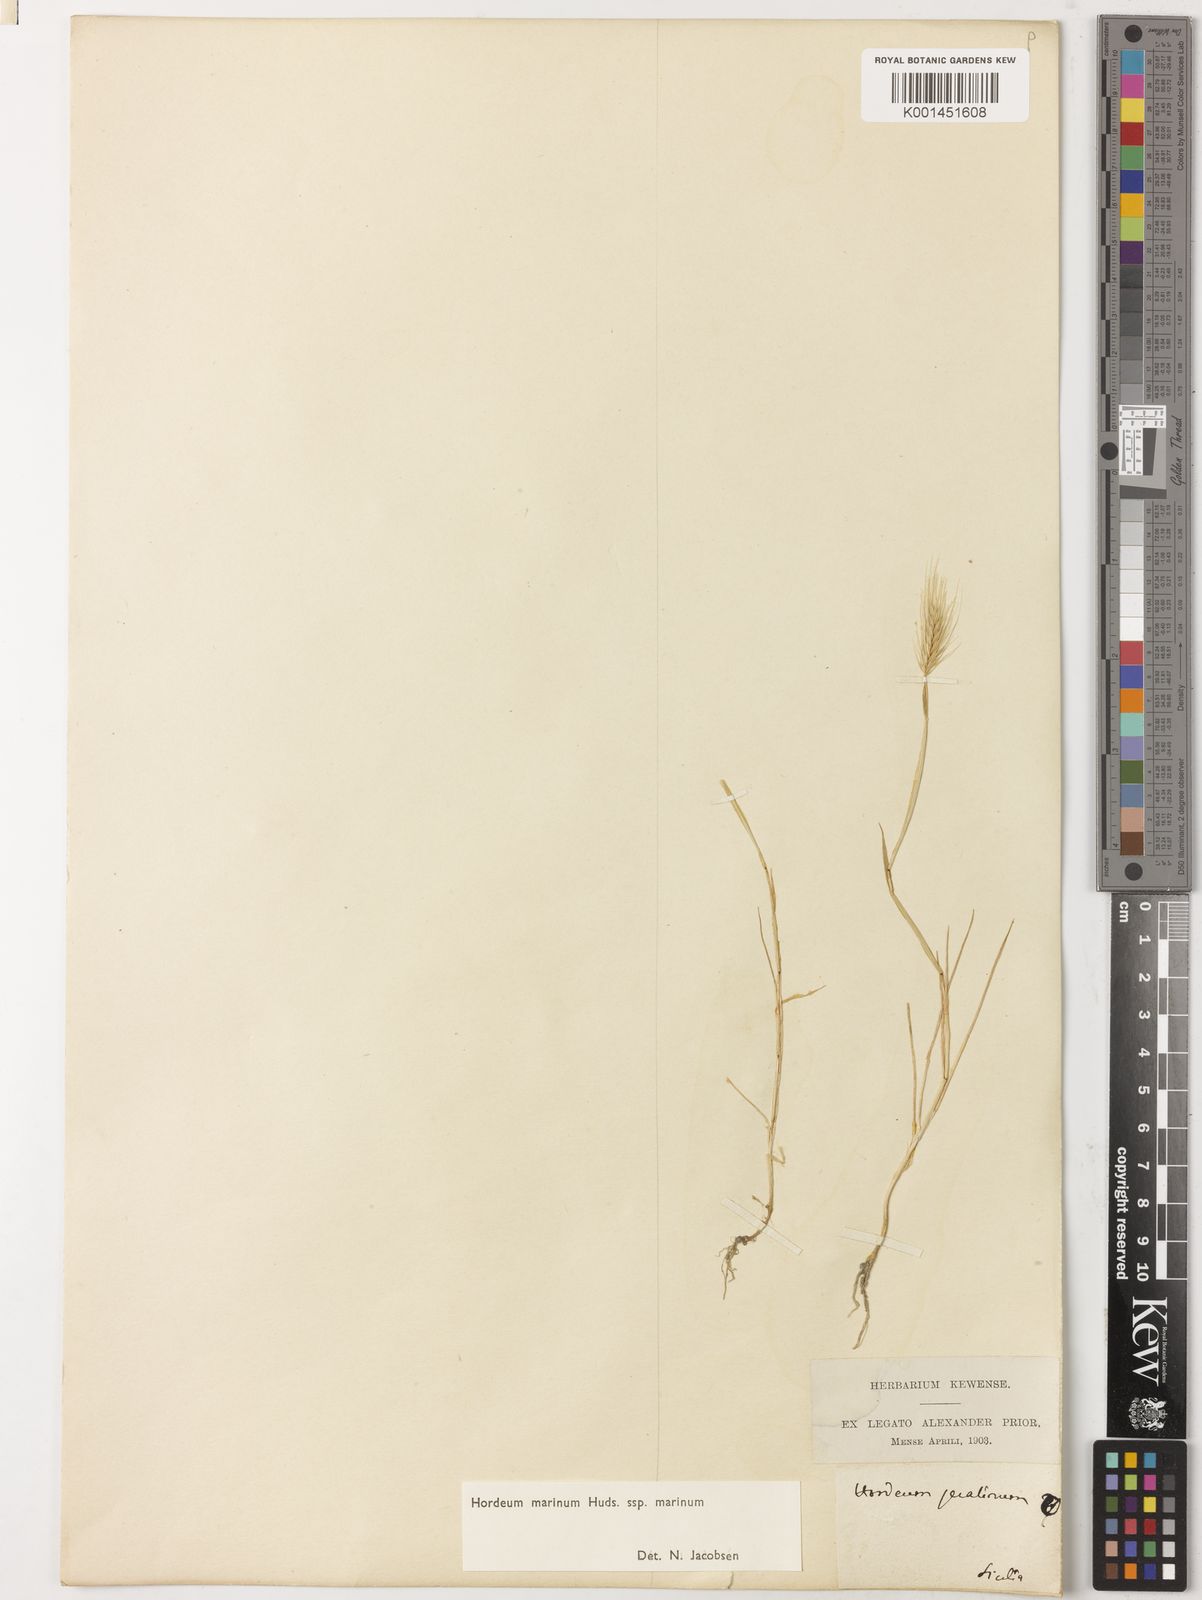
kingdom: Plantae
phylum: Tracheophyta
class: Liliopsida
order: Poales
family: Poaceae
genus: Hordeum
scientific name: Hordeum marinum
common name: Sea barley
